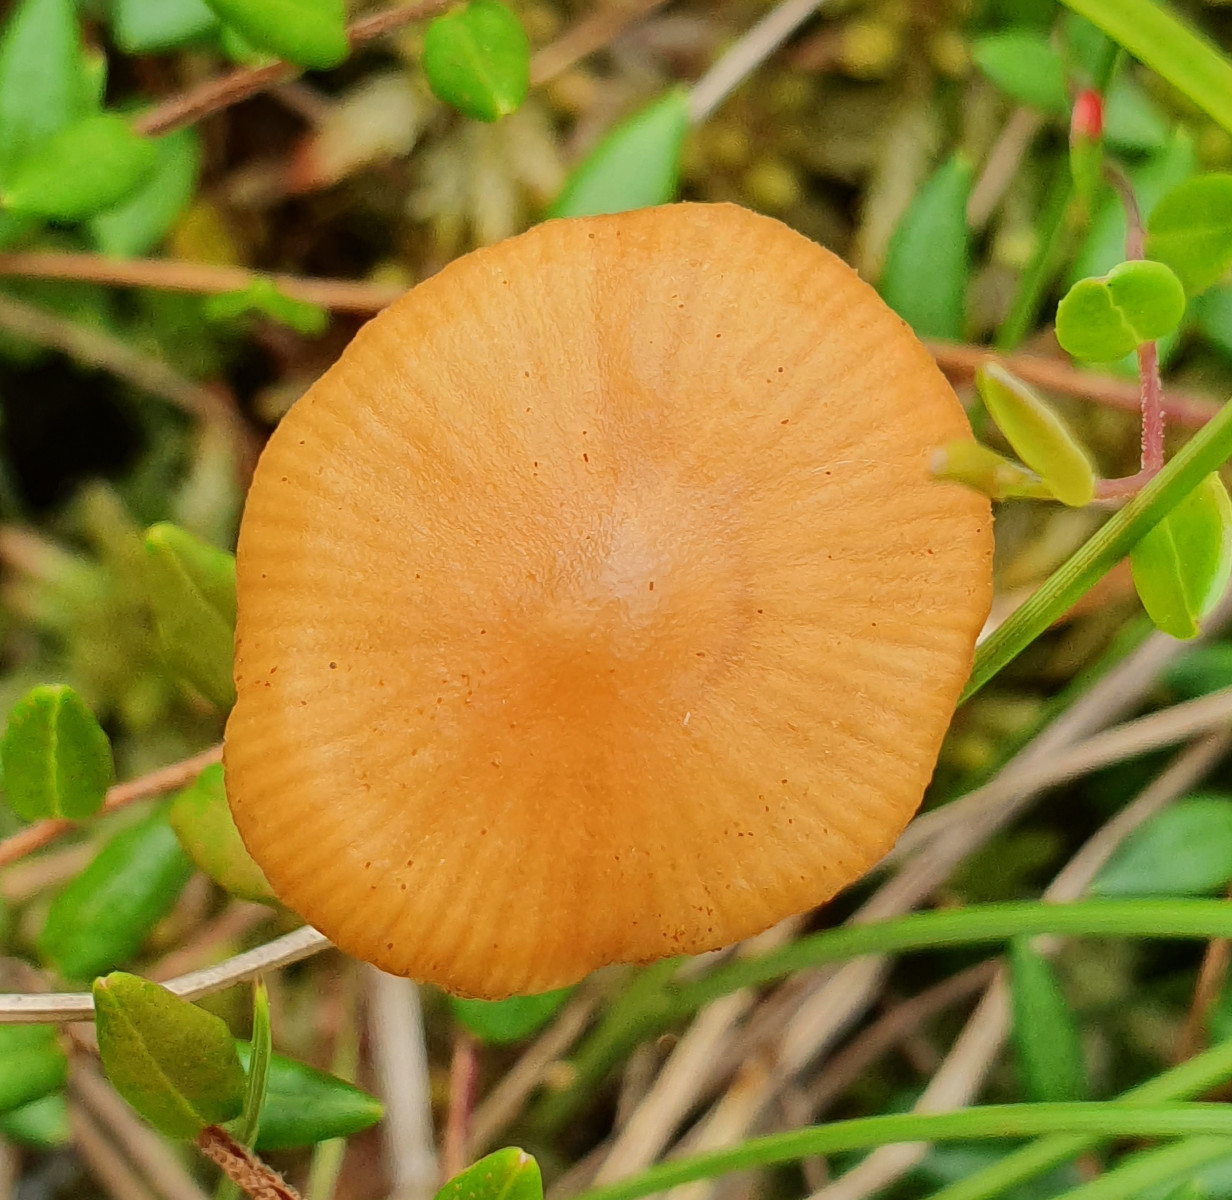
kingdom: Fungi
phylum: Basidiomycota
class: Agaricomycetes
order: Agaricales
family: Hymenogastraceae
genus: Galerina
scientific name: Galerina hybrida
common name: hængesæk-hjelmhat
